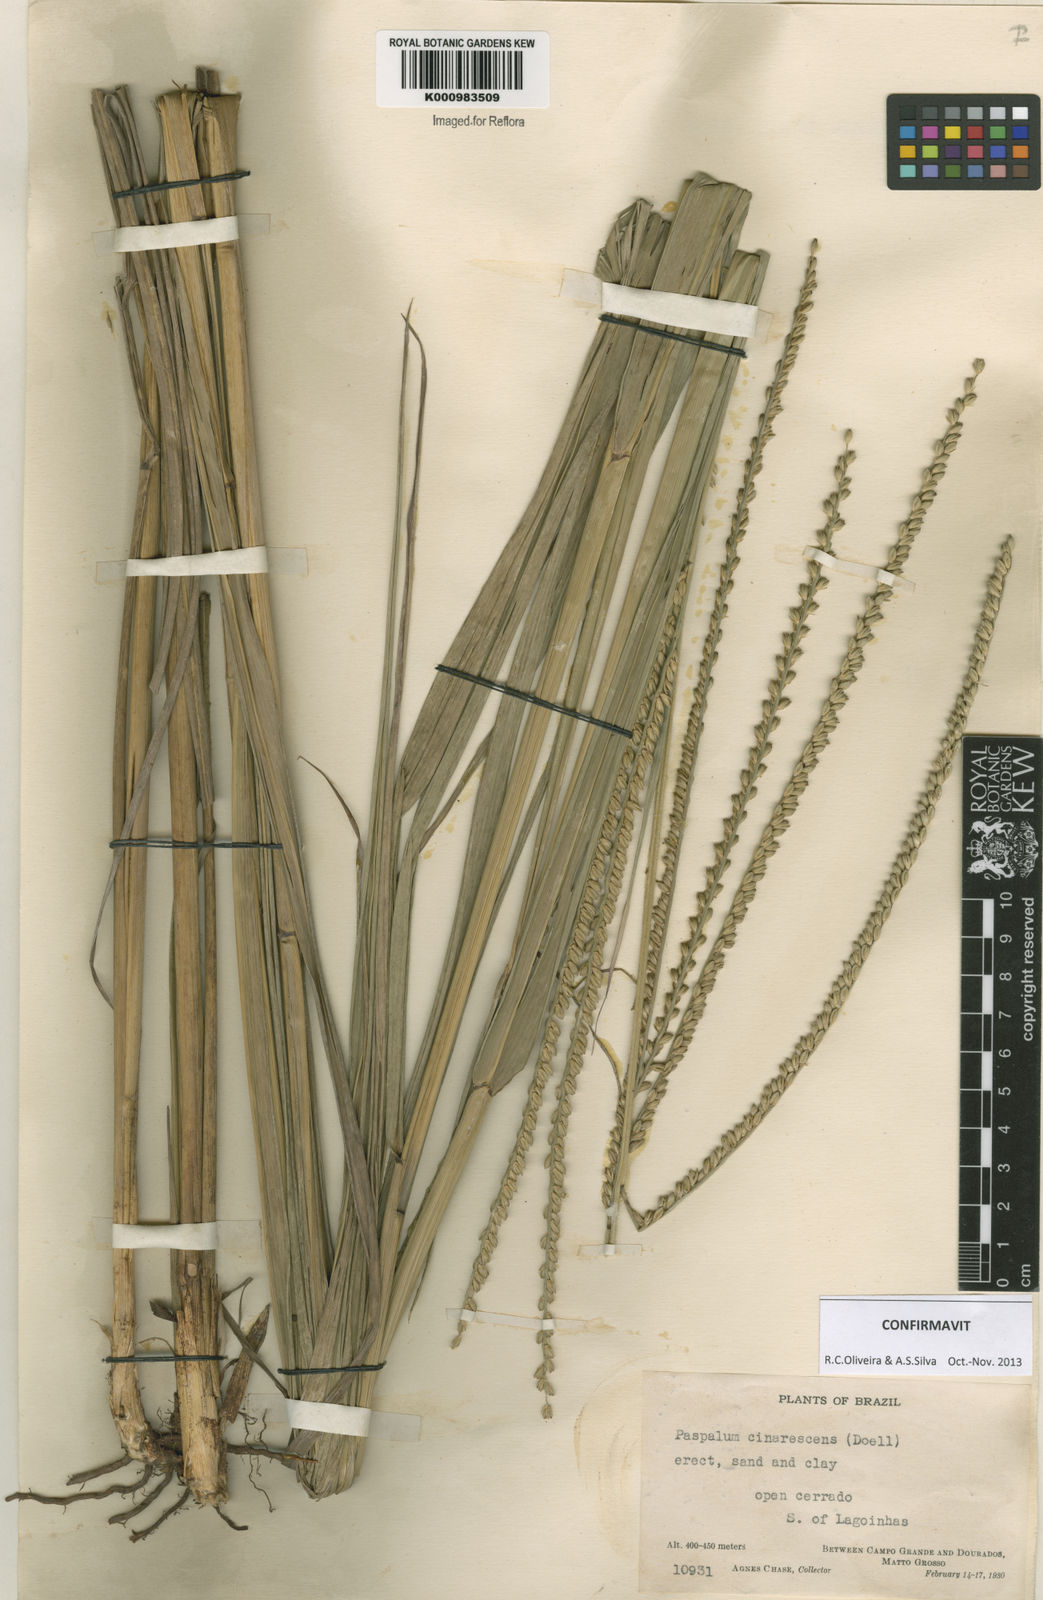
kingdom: Plantae
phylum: Tracheophyta
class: Liliopsida
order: Poales
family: Poaceae
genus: Paspalum
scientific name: Paspalum
